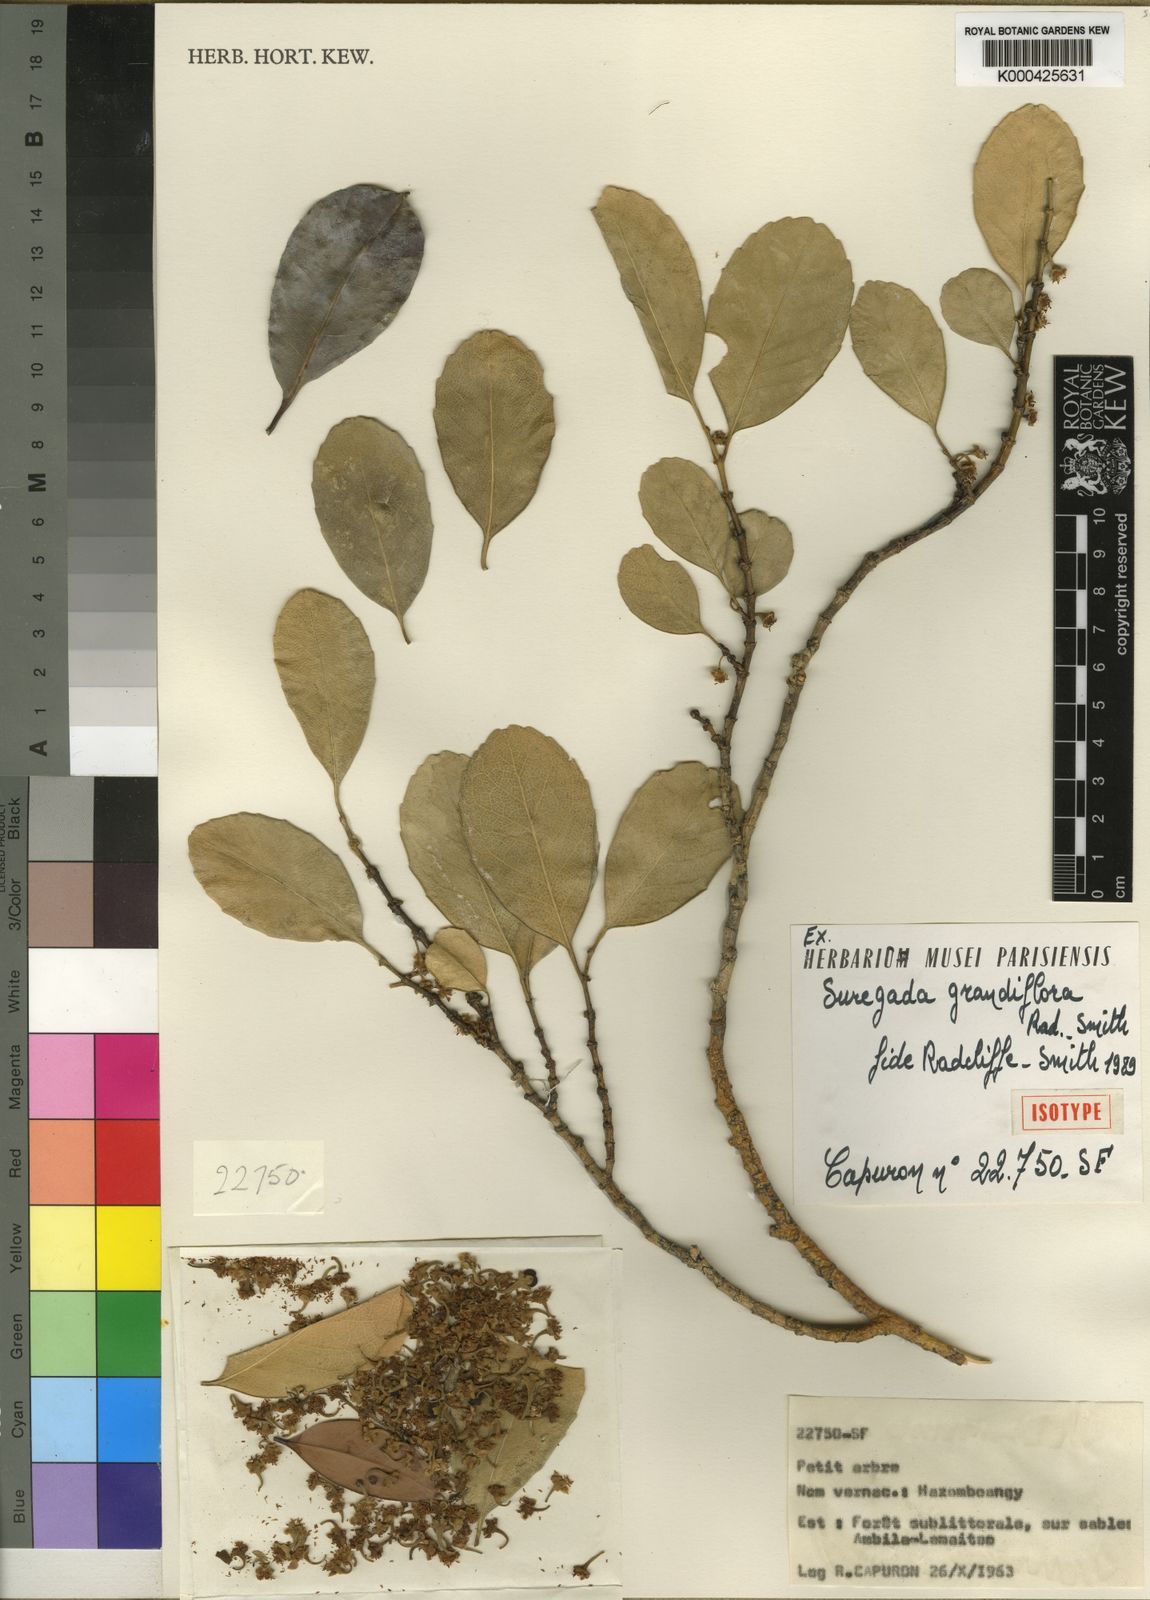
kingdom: Plantae
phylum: Tracheophyta
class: Magnoliopsida
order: Malpighiales
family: Euphorbiaceae
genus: Suregada
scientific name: Suregada grandiflora
